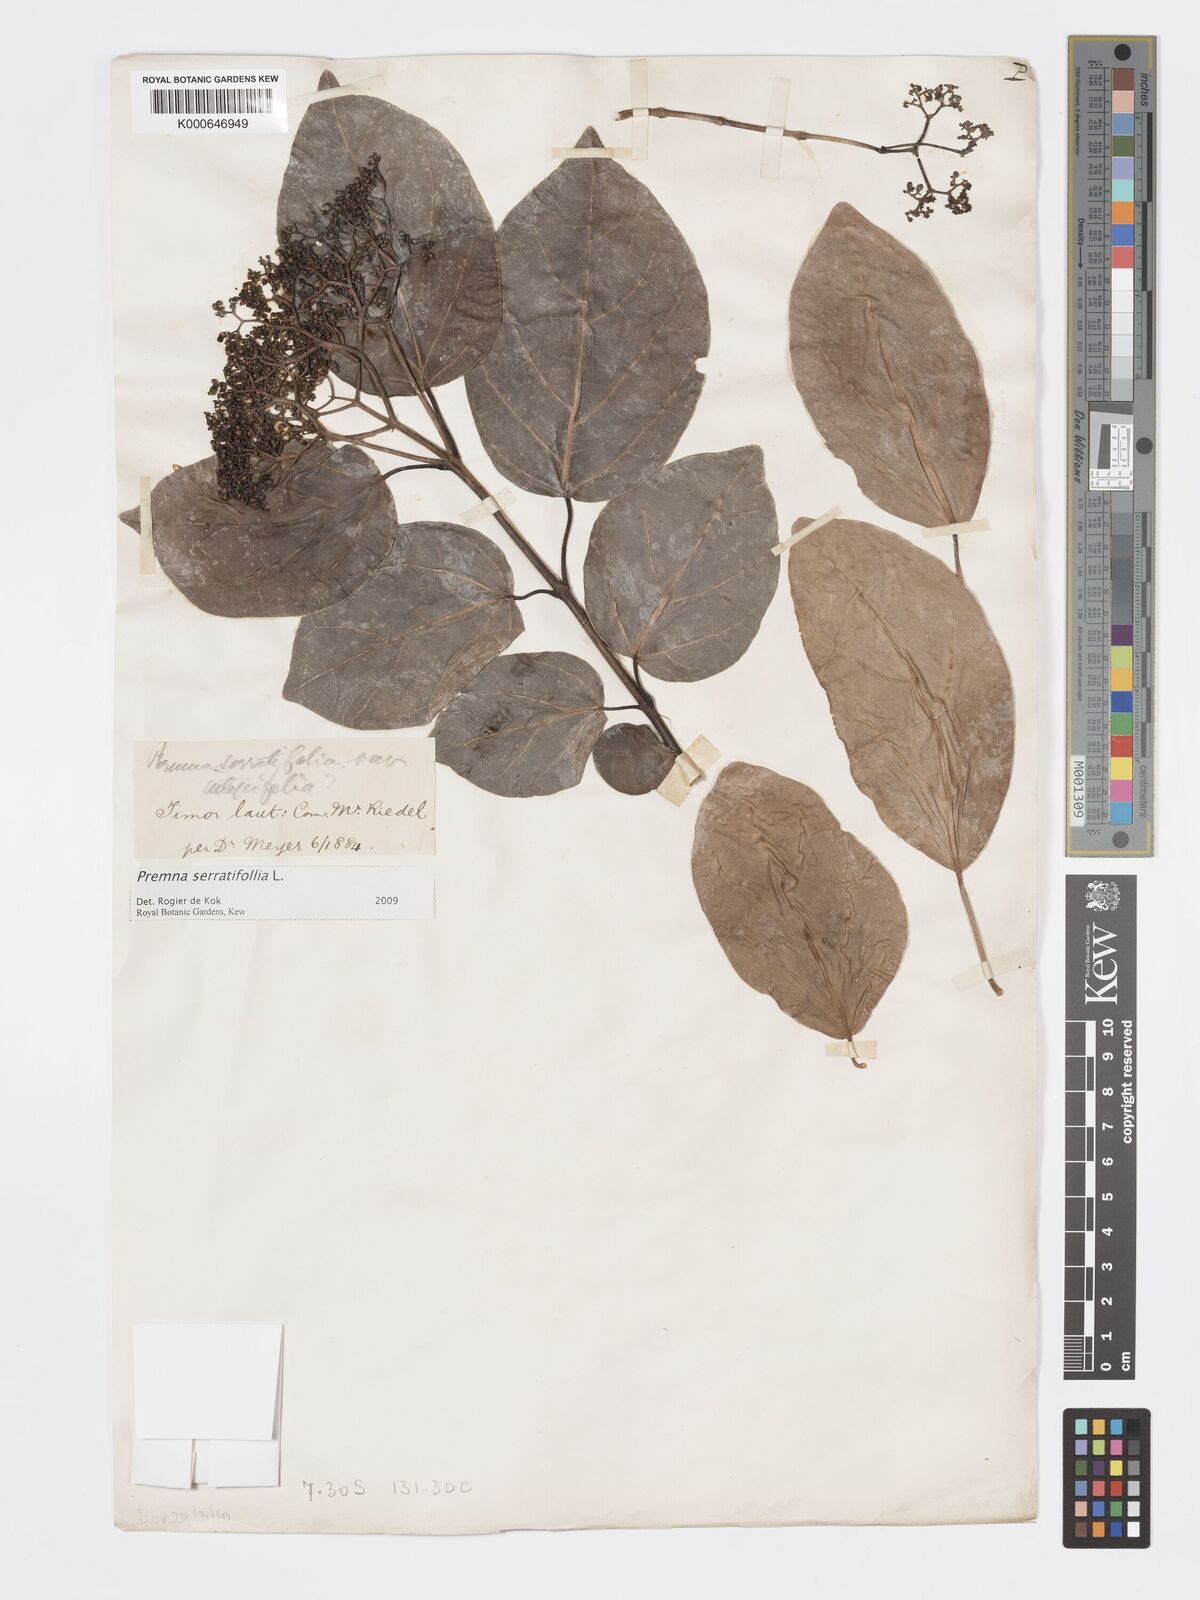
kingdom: Plantae
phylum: Tracheophyta
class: Magnoliopsida
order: Lamiales
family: Lamiaceae
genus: Premna
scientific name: Premna serratifolia
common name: Bastard guelder
